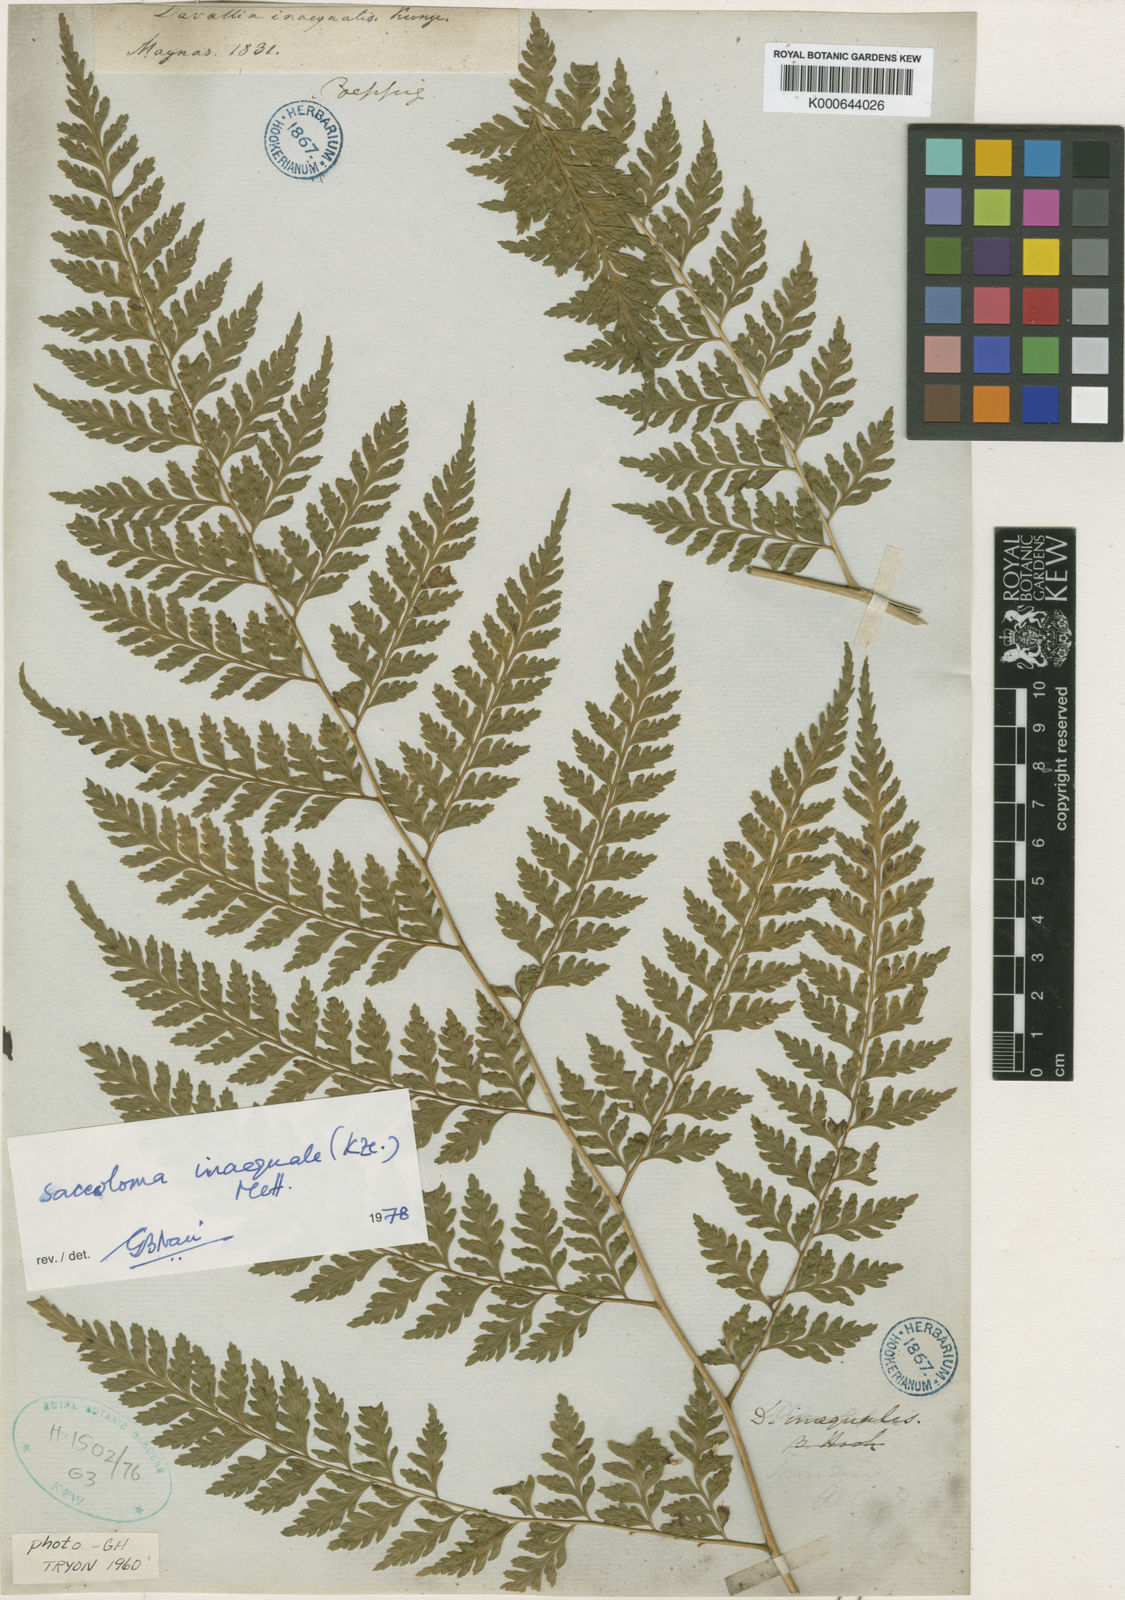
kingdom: Plantae
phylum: Tracheophyta
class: Polypodiopsida
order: Polypodiales
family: Saccolomataceae
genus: Saccoloma
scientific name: Saccoloma inaequale
